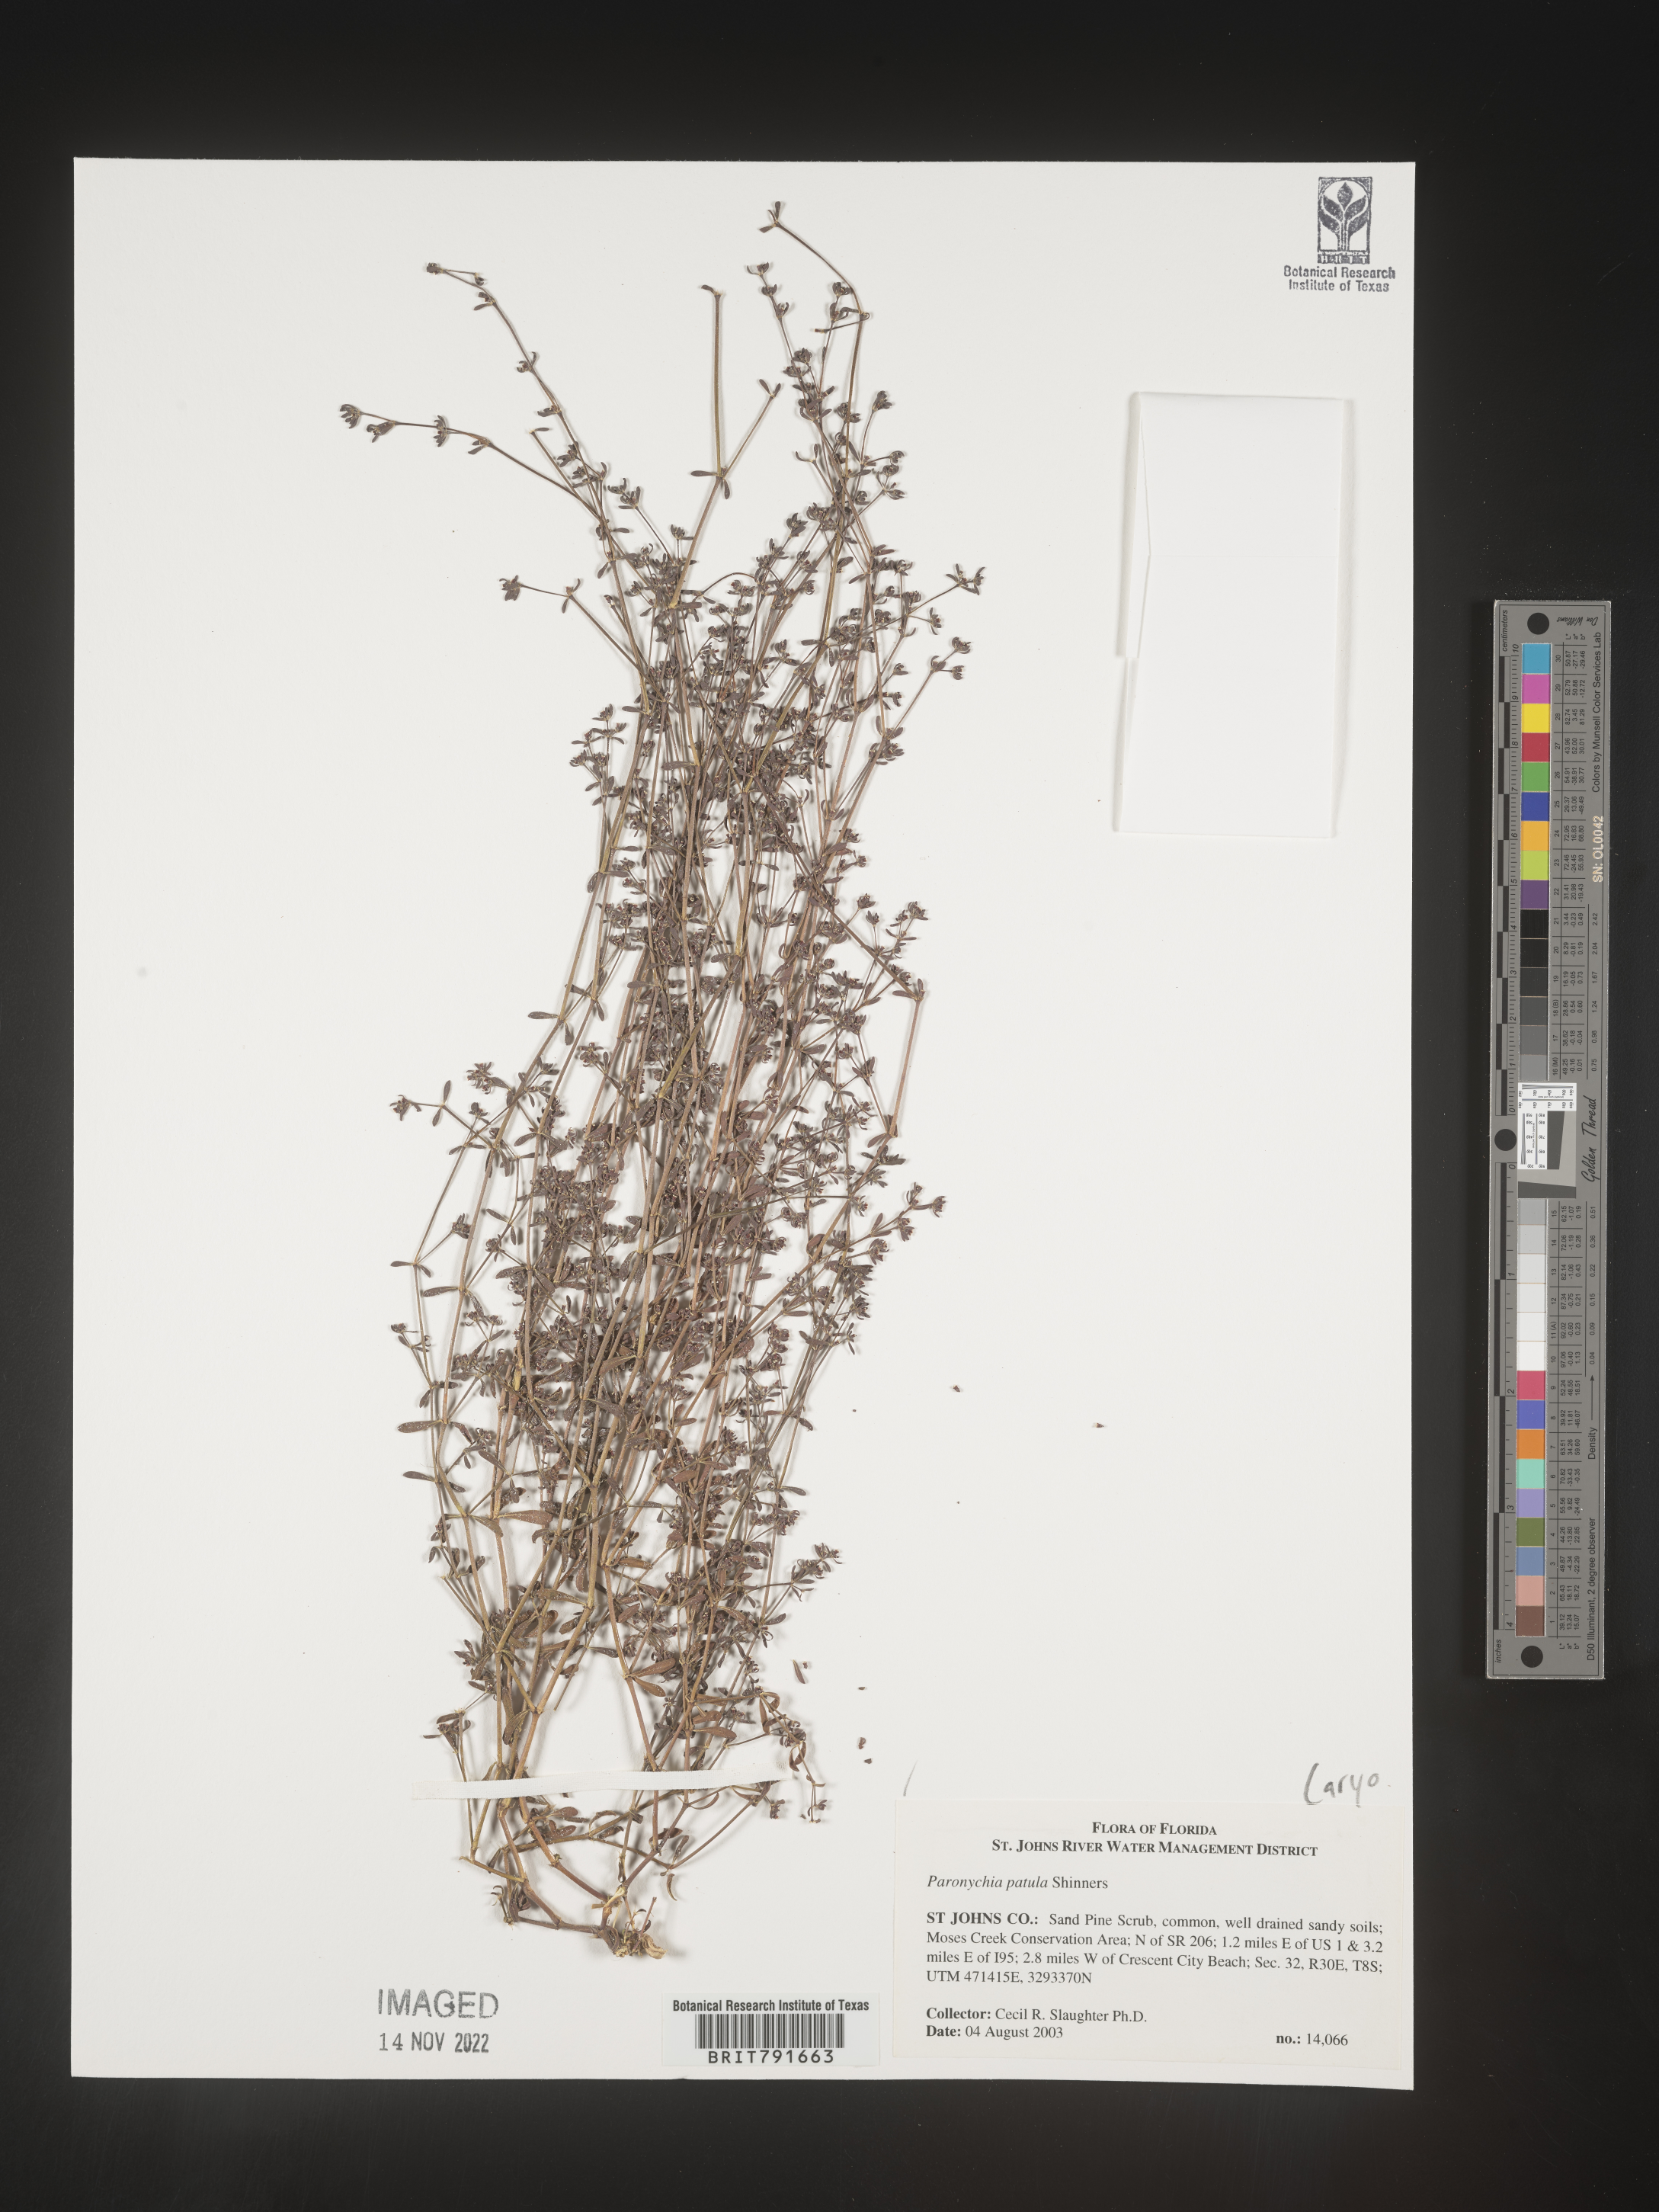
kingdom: Plantae
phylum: Tracheophyta
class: Magnoliopsida
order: Caryophyllales
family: Caryophyllaceae
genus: Paronychia
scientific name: Paronychia patula
